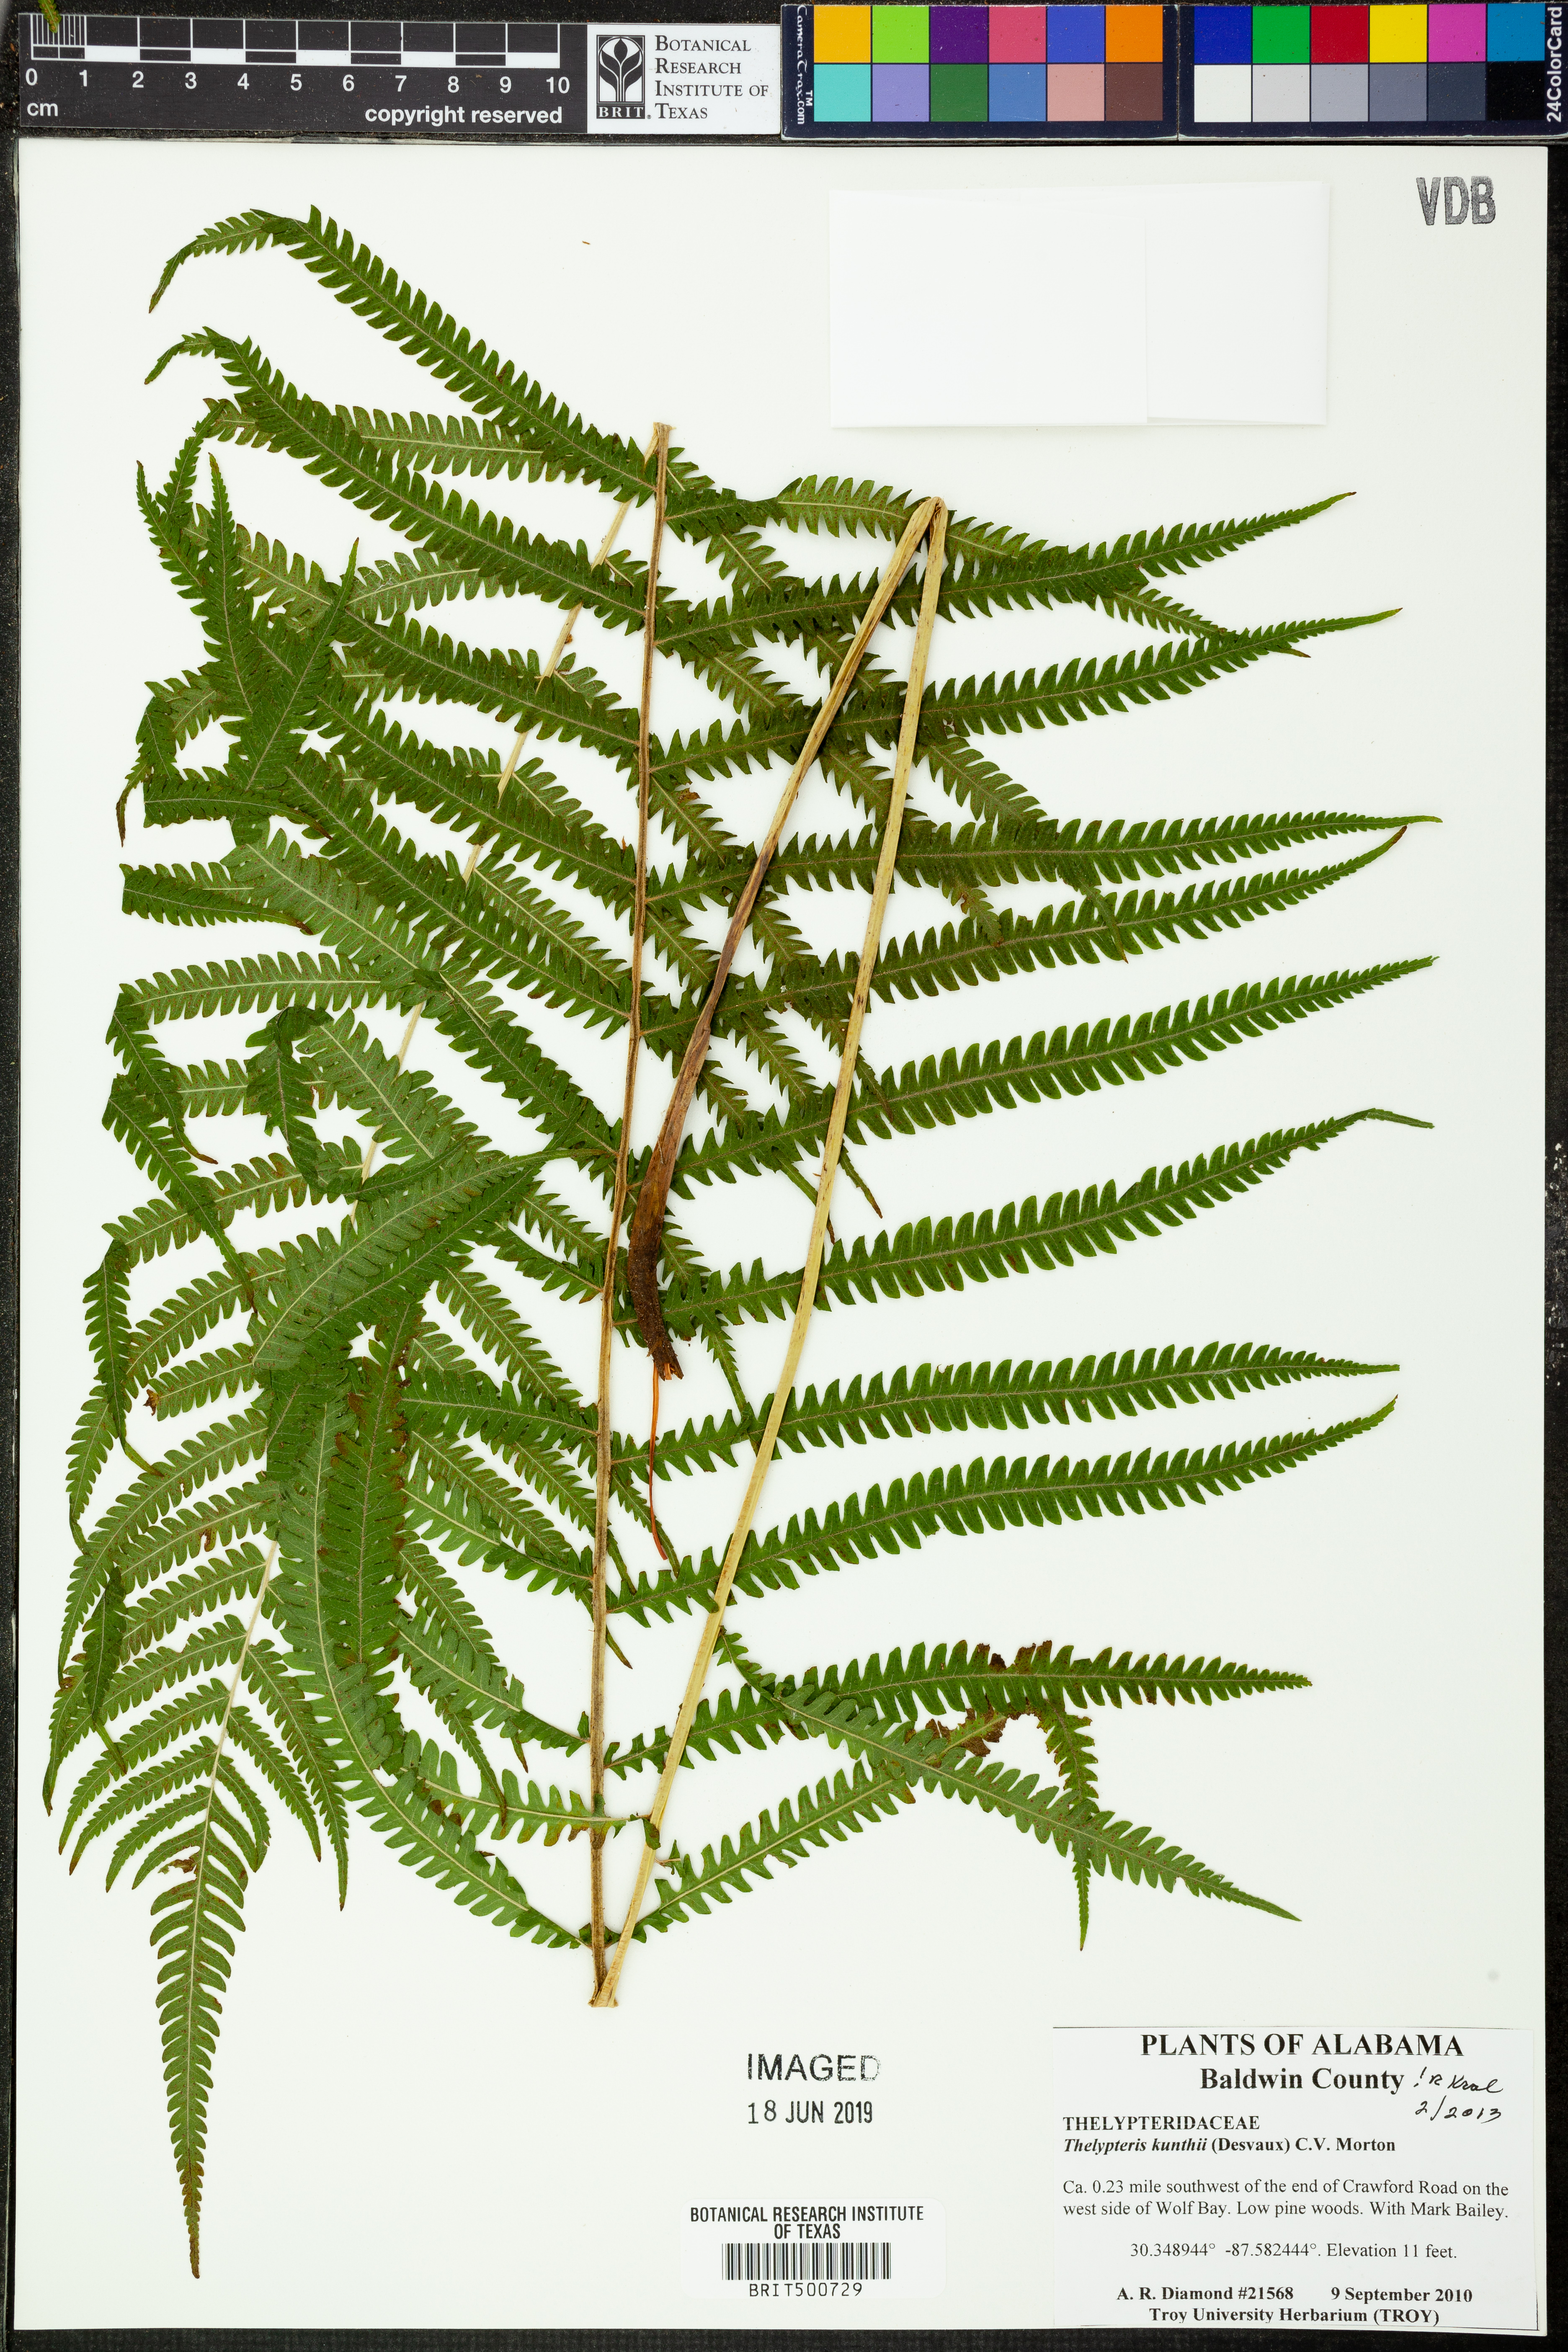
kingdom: Plantae
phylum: Tracheophyta
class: Polypodiopsida
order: Polypodiales
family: Thelypteridaceae
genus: Pelazoneuron
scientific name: Pelazoneuron kunthii
